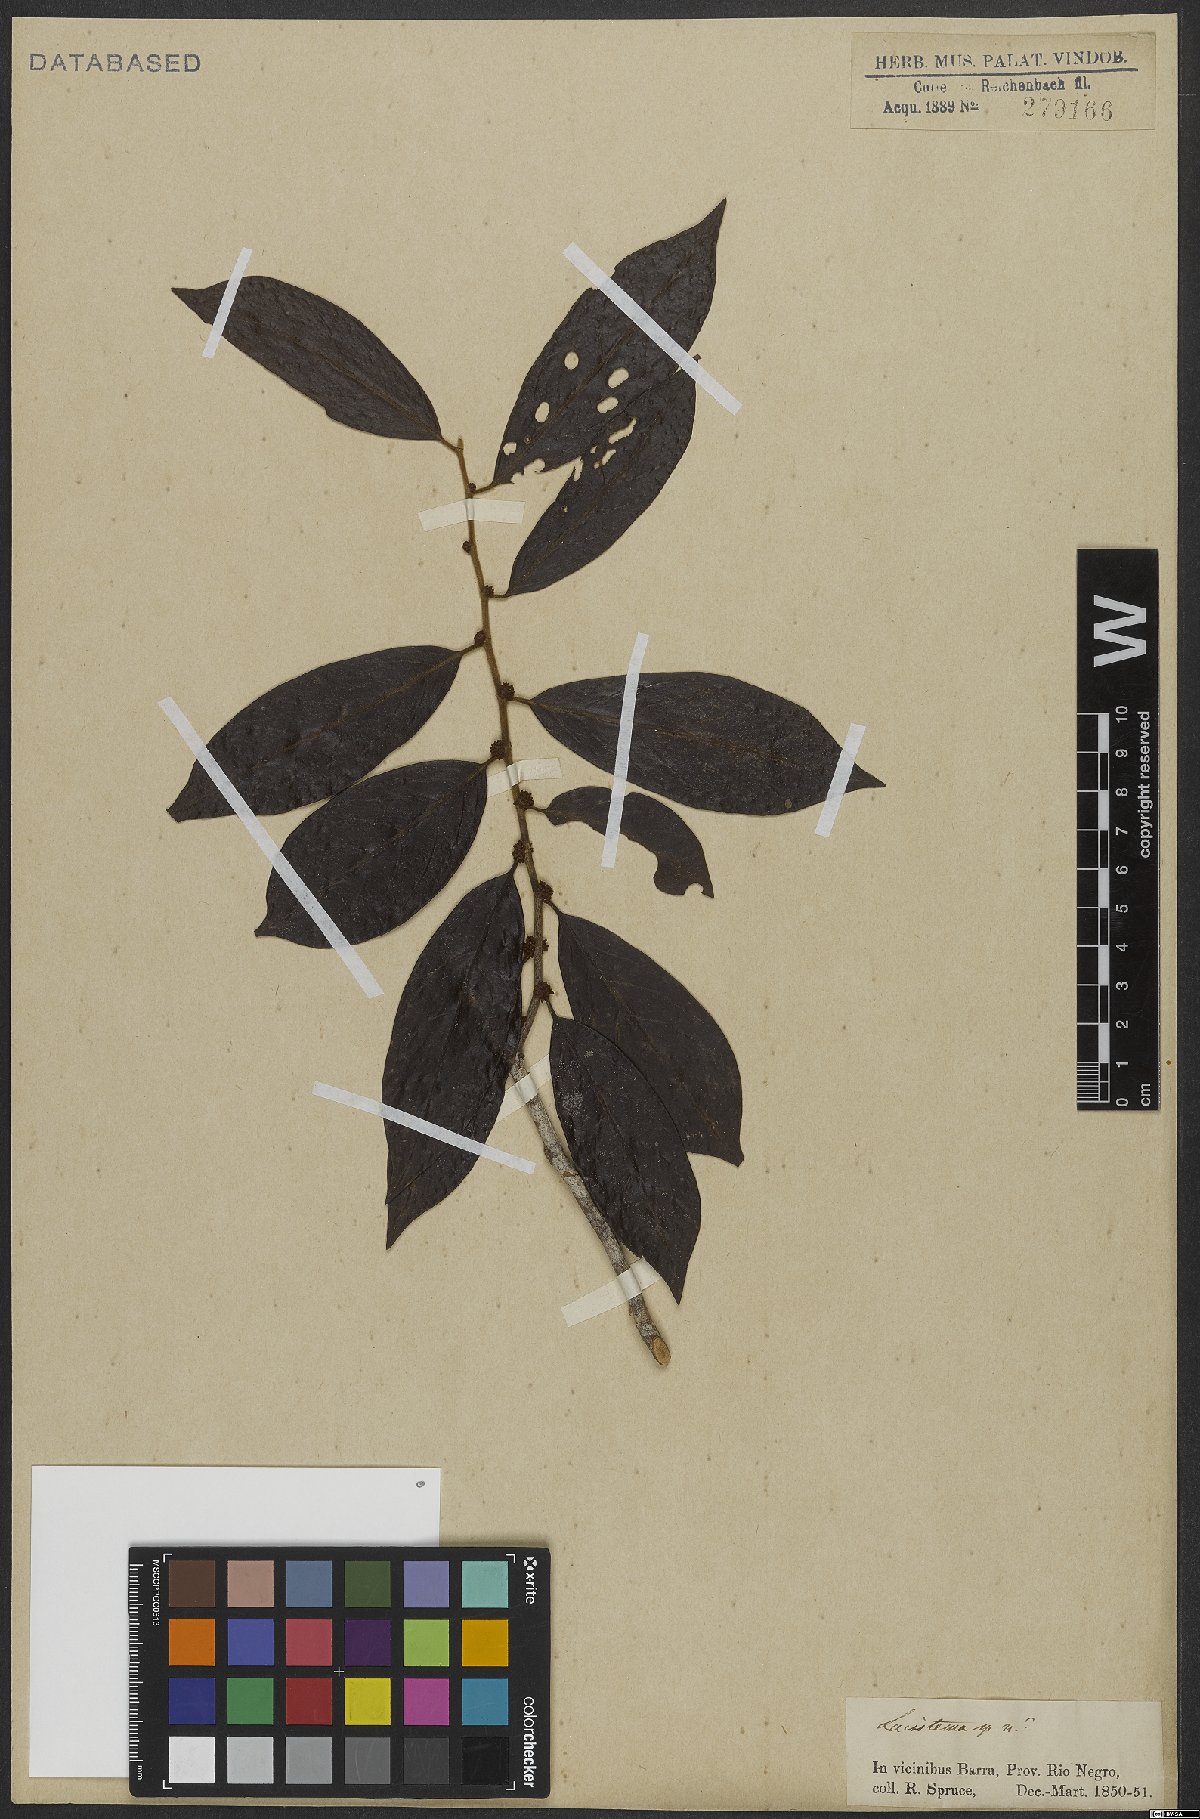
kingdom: Plantae
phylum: Tracheophyta
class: Magnoliopsida
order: Malpighiales
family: Lacistemataceae
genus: Lacistema
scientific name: Lacistema
